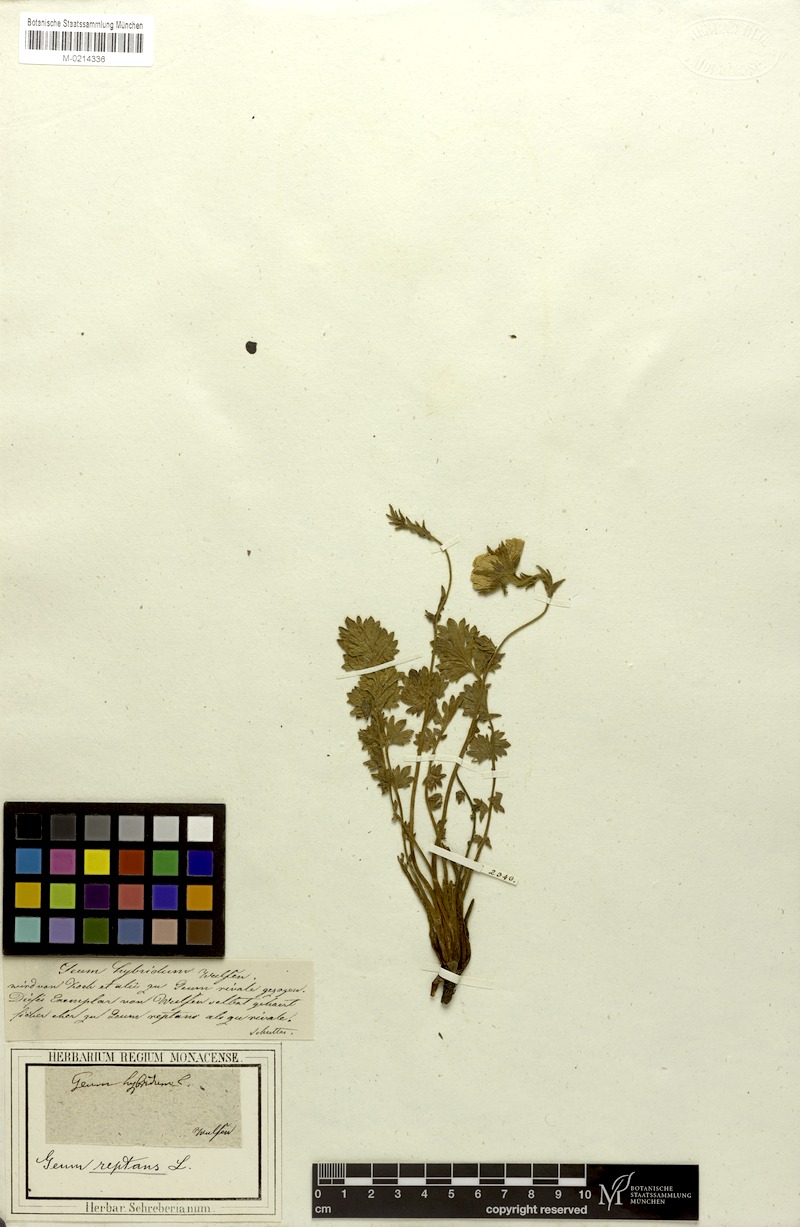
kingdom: Plantae
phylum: Tracheophyta
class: Magnoliopsida
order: Rosales
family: Rosaceae
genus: Geum
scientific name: Geum rivale
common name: Water avens
